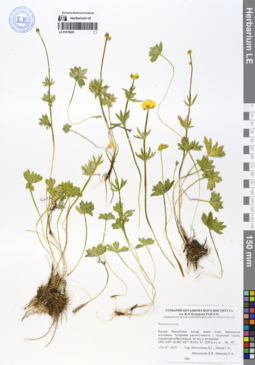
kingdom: Plantae
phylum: Tracheophyta
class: Magnoliopsida
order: Ranunculales
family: Ranunculaceae
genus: Ranunculus
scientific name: Ranunculus lasiocarpus
